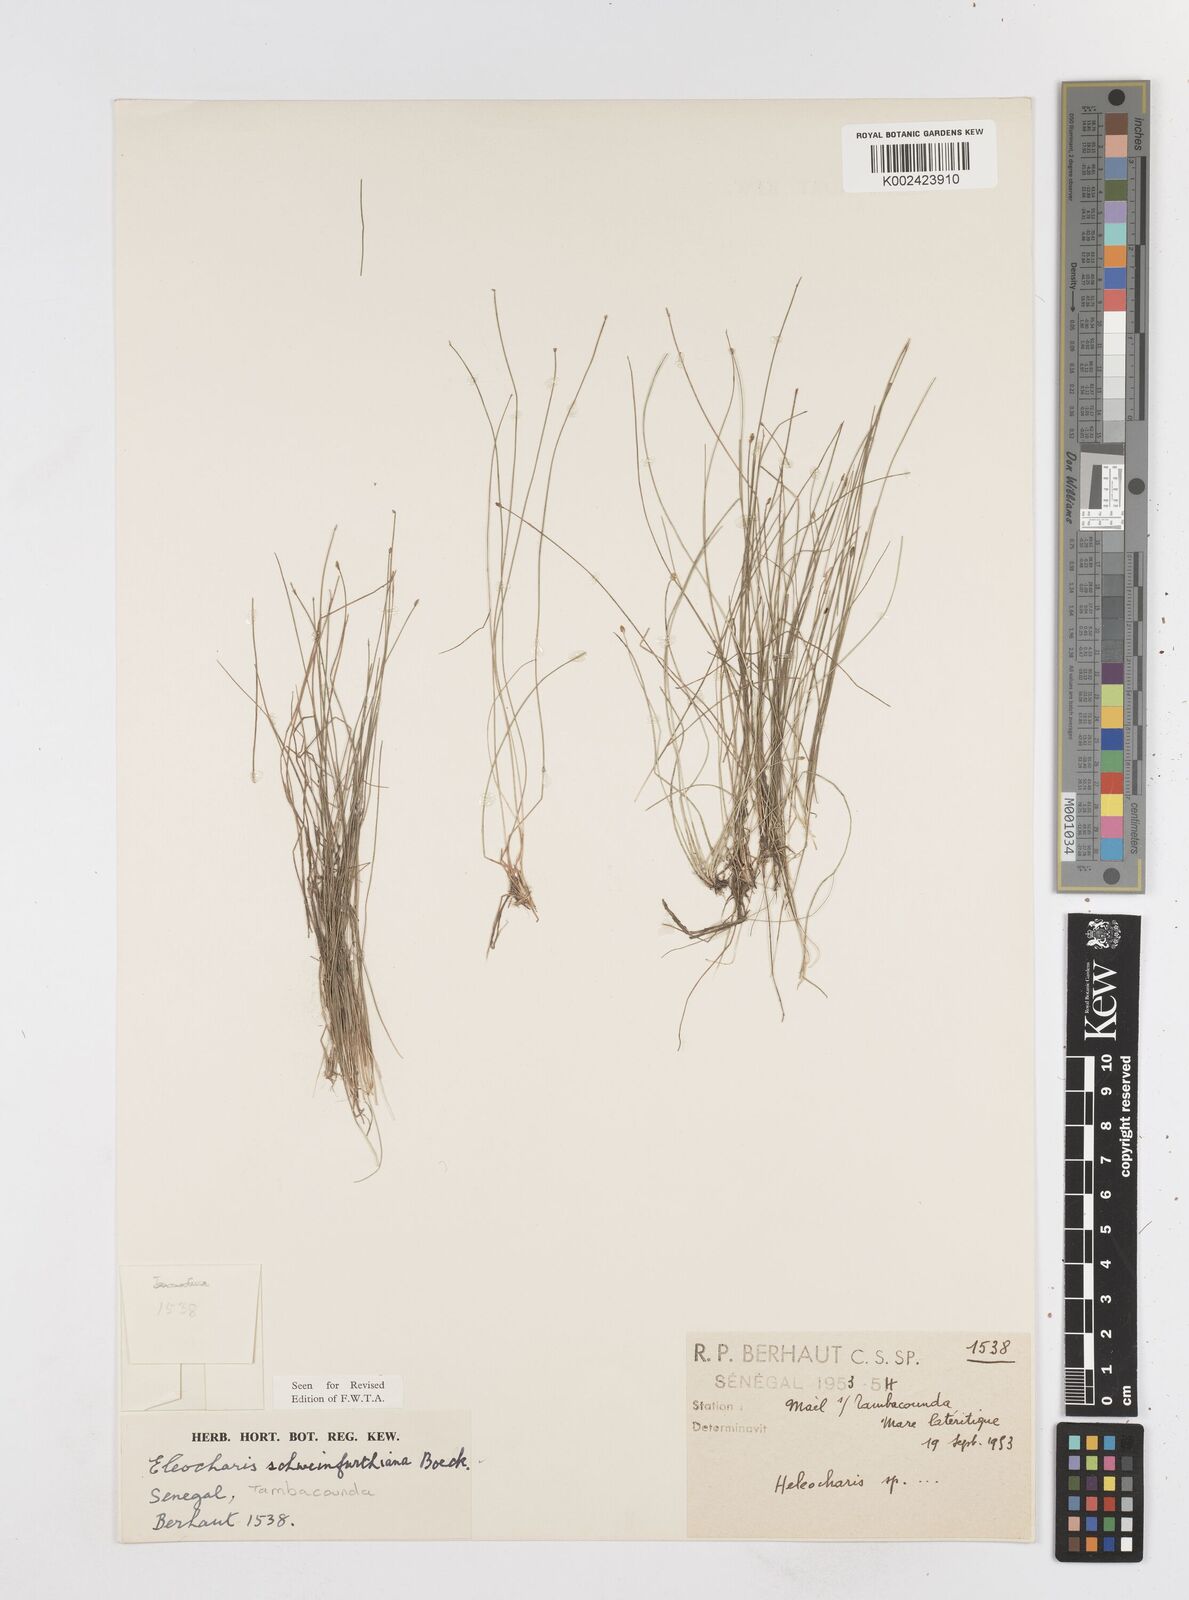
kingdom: Plantae
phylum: Tracheophyta
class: Liliopsida
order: Poales
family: Cyperaceae
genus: Eleocharis
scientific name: Eleocharis setifolia
